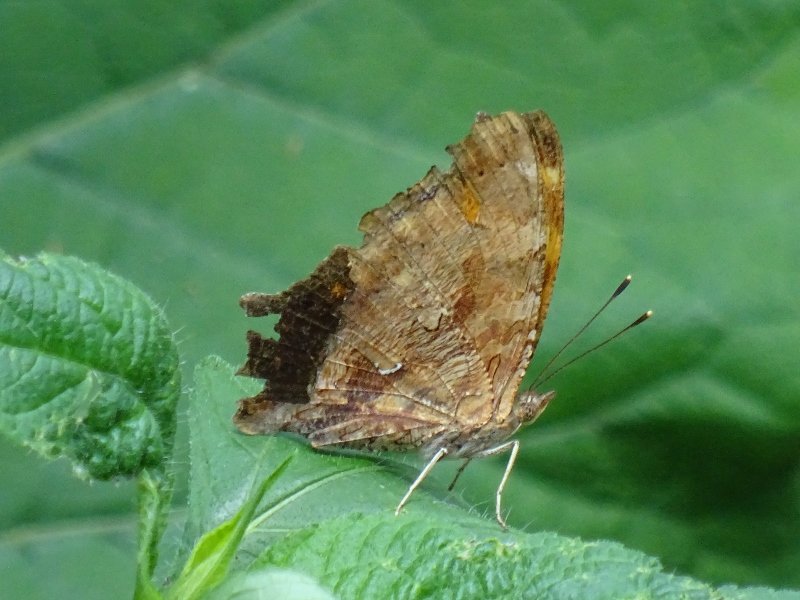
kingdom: Animalia
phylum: Arthropoda
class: Insecta
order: Lepidoptera
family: Nymphalidae
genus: Polygonia
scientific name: Polygonia comma
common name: Eastern Comma
